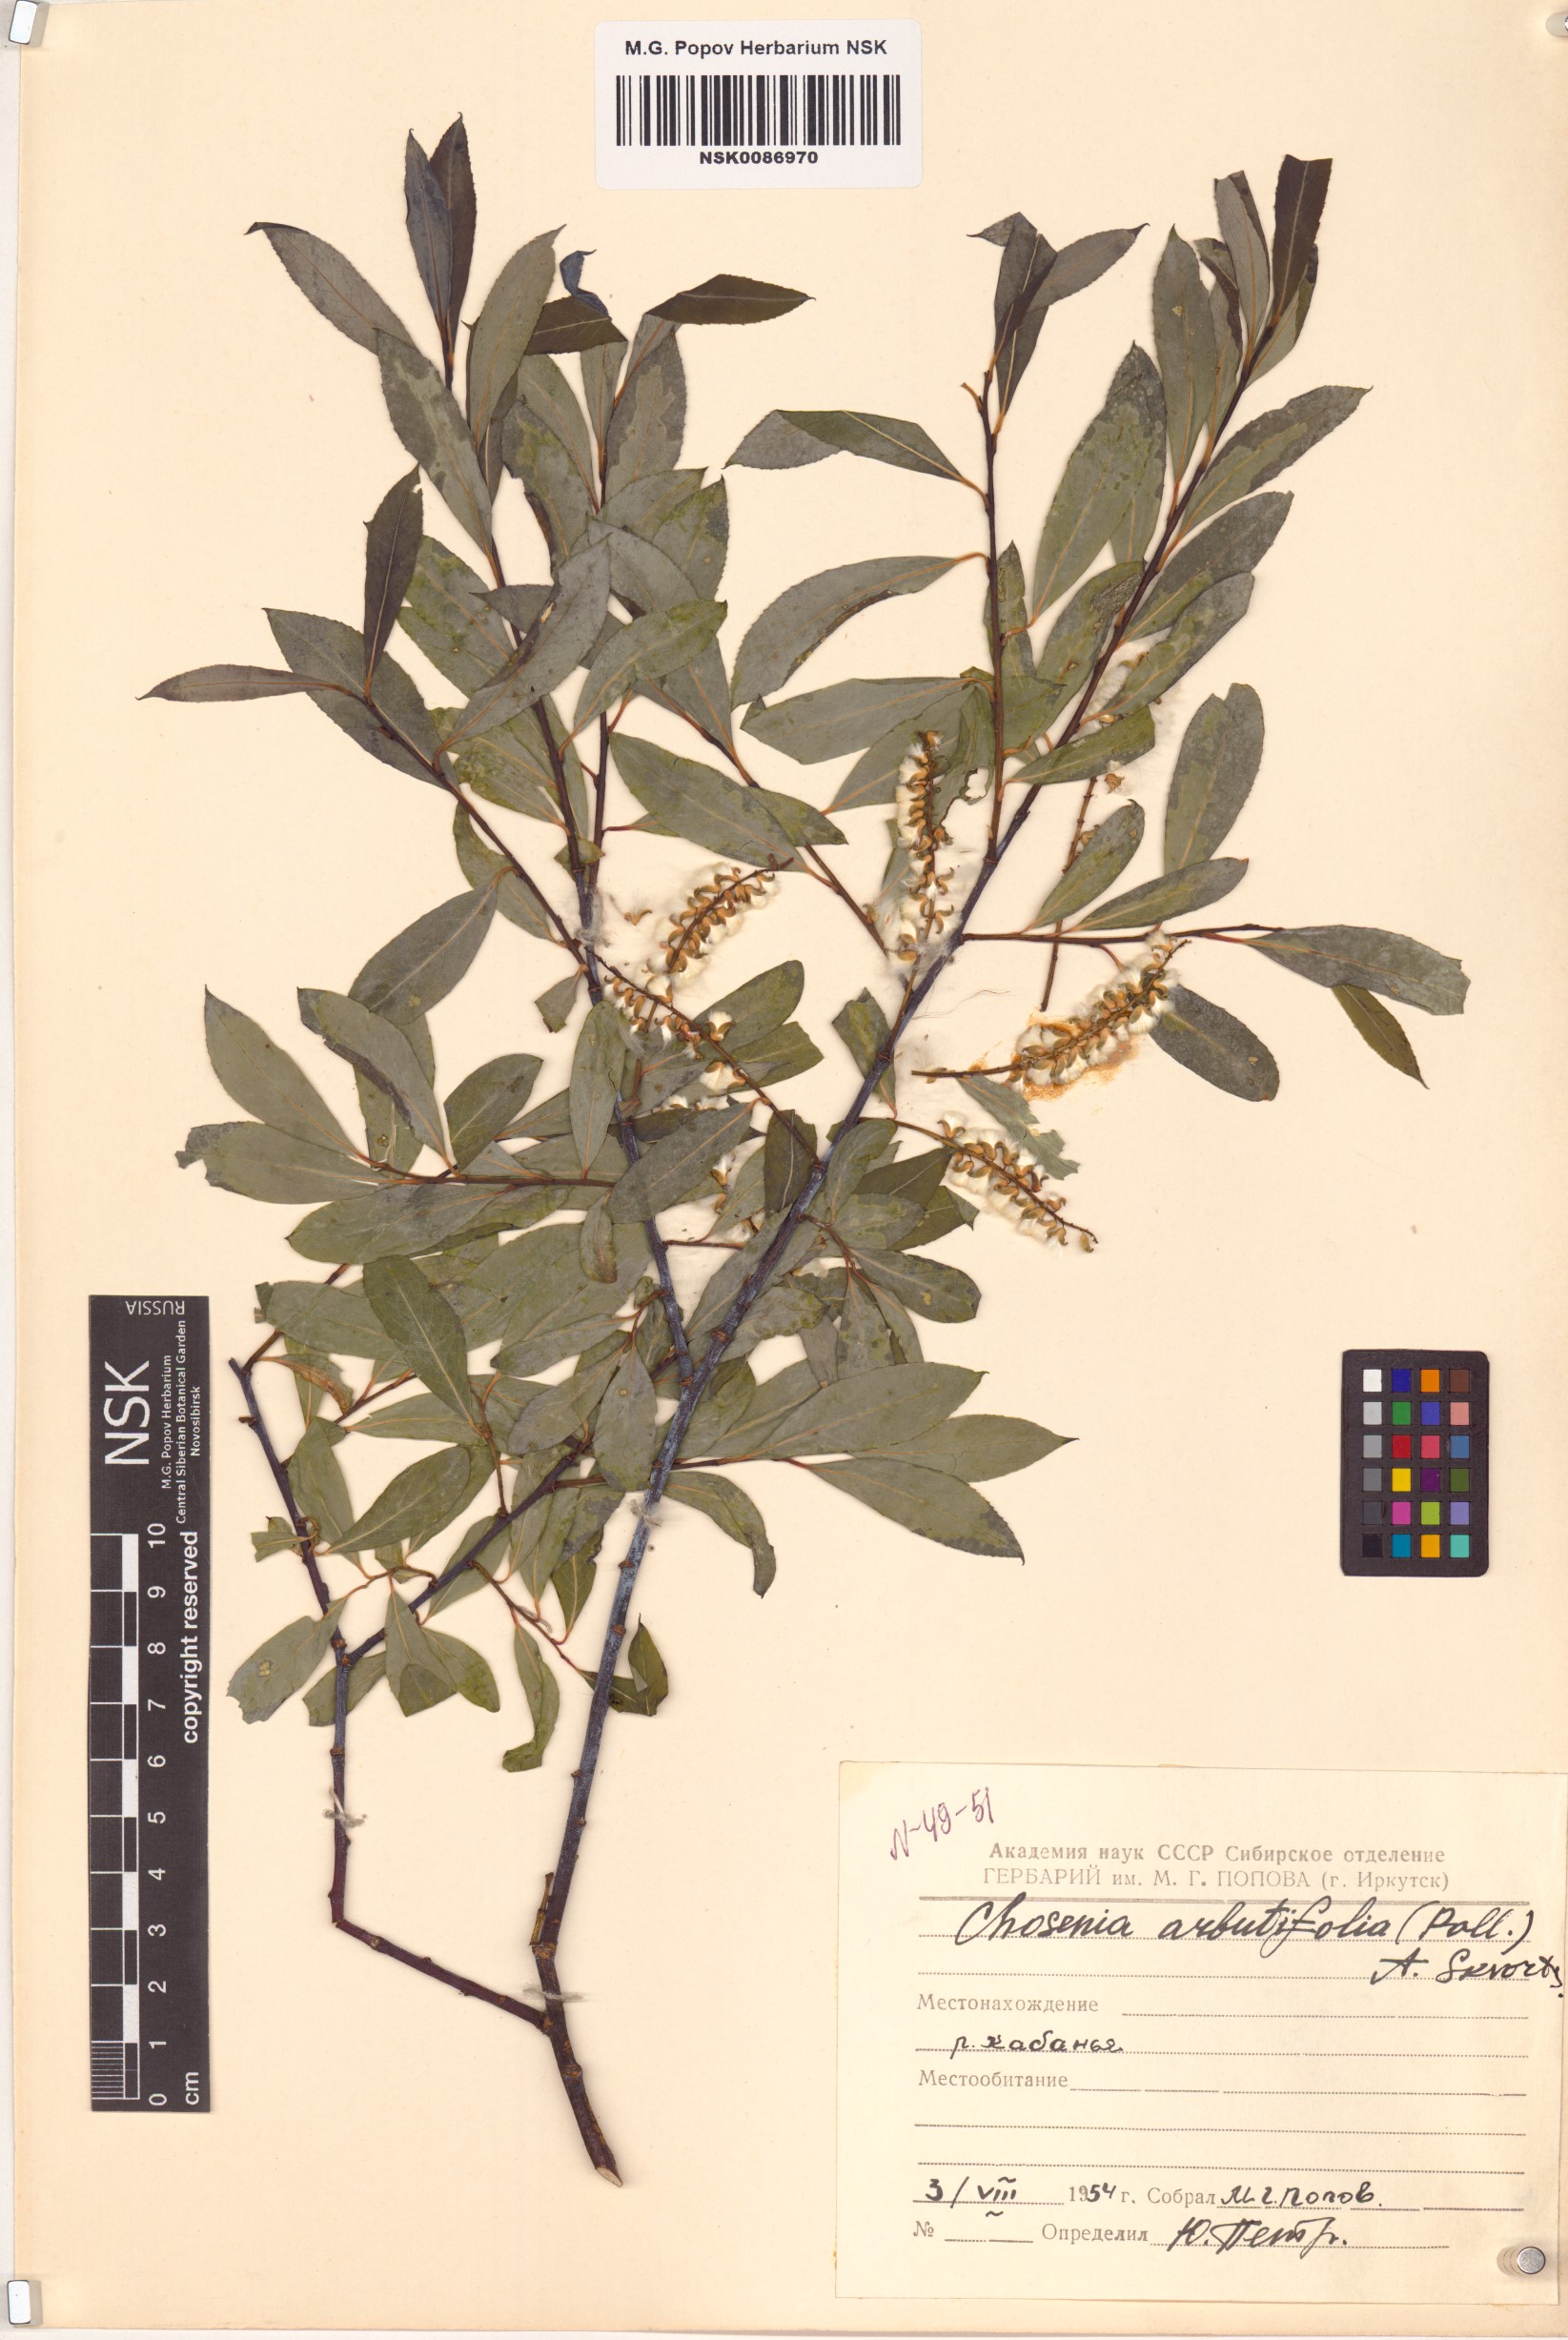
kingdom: Plantae
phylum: Tracheophyta
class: Magnoliopsida
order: Malpighiales
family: Salicaceae
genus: Chosenia
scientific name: Chosenia arbutifolia
